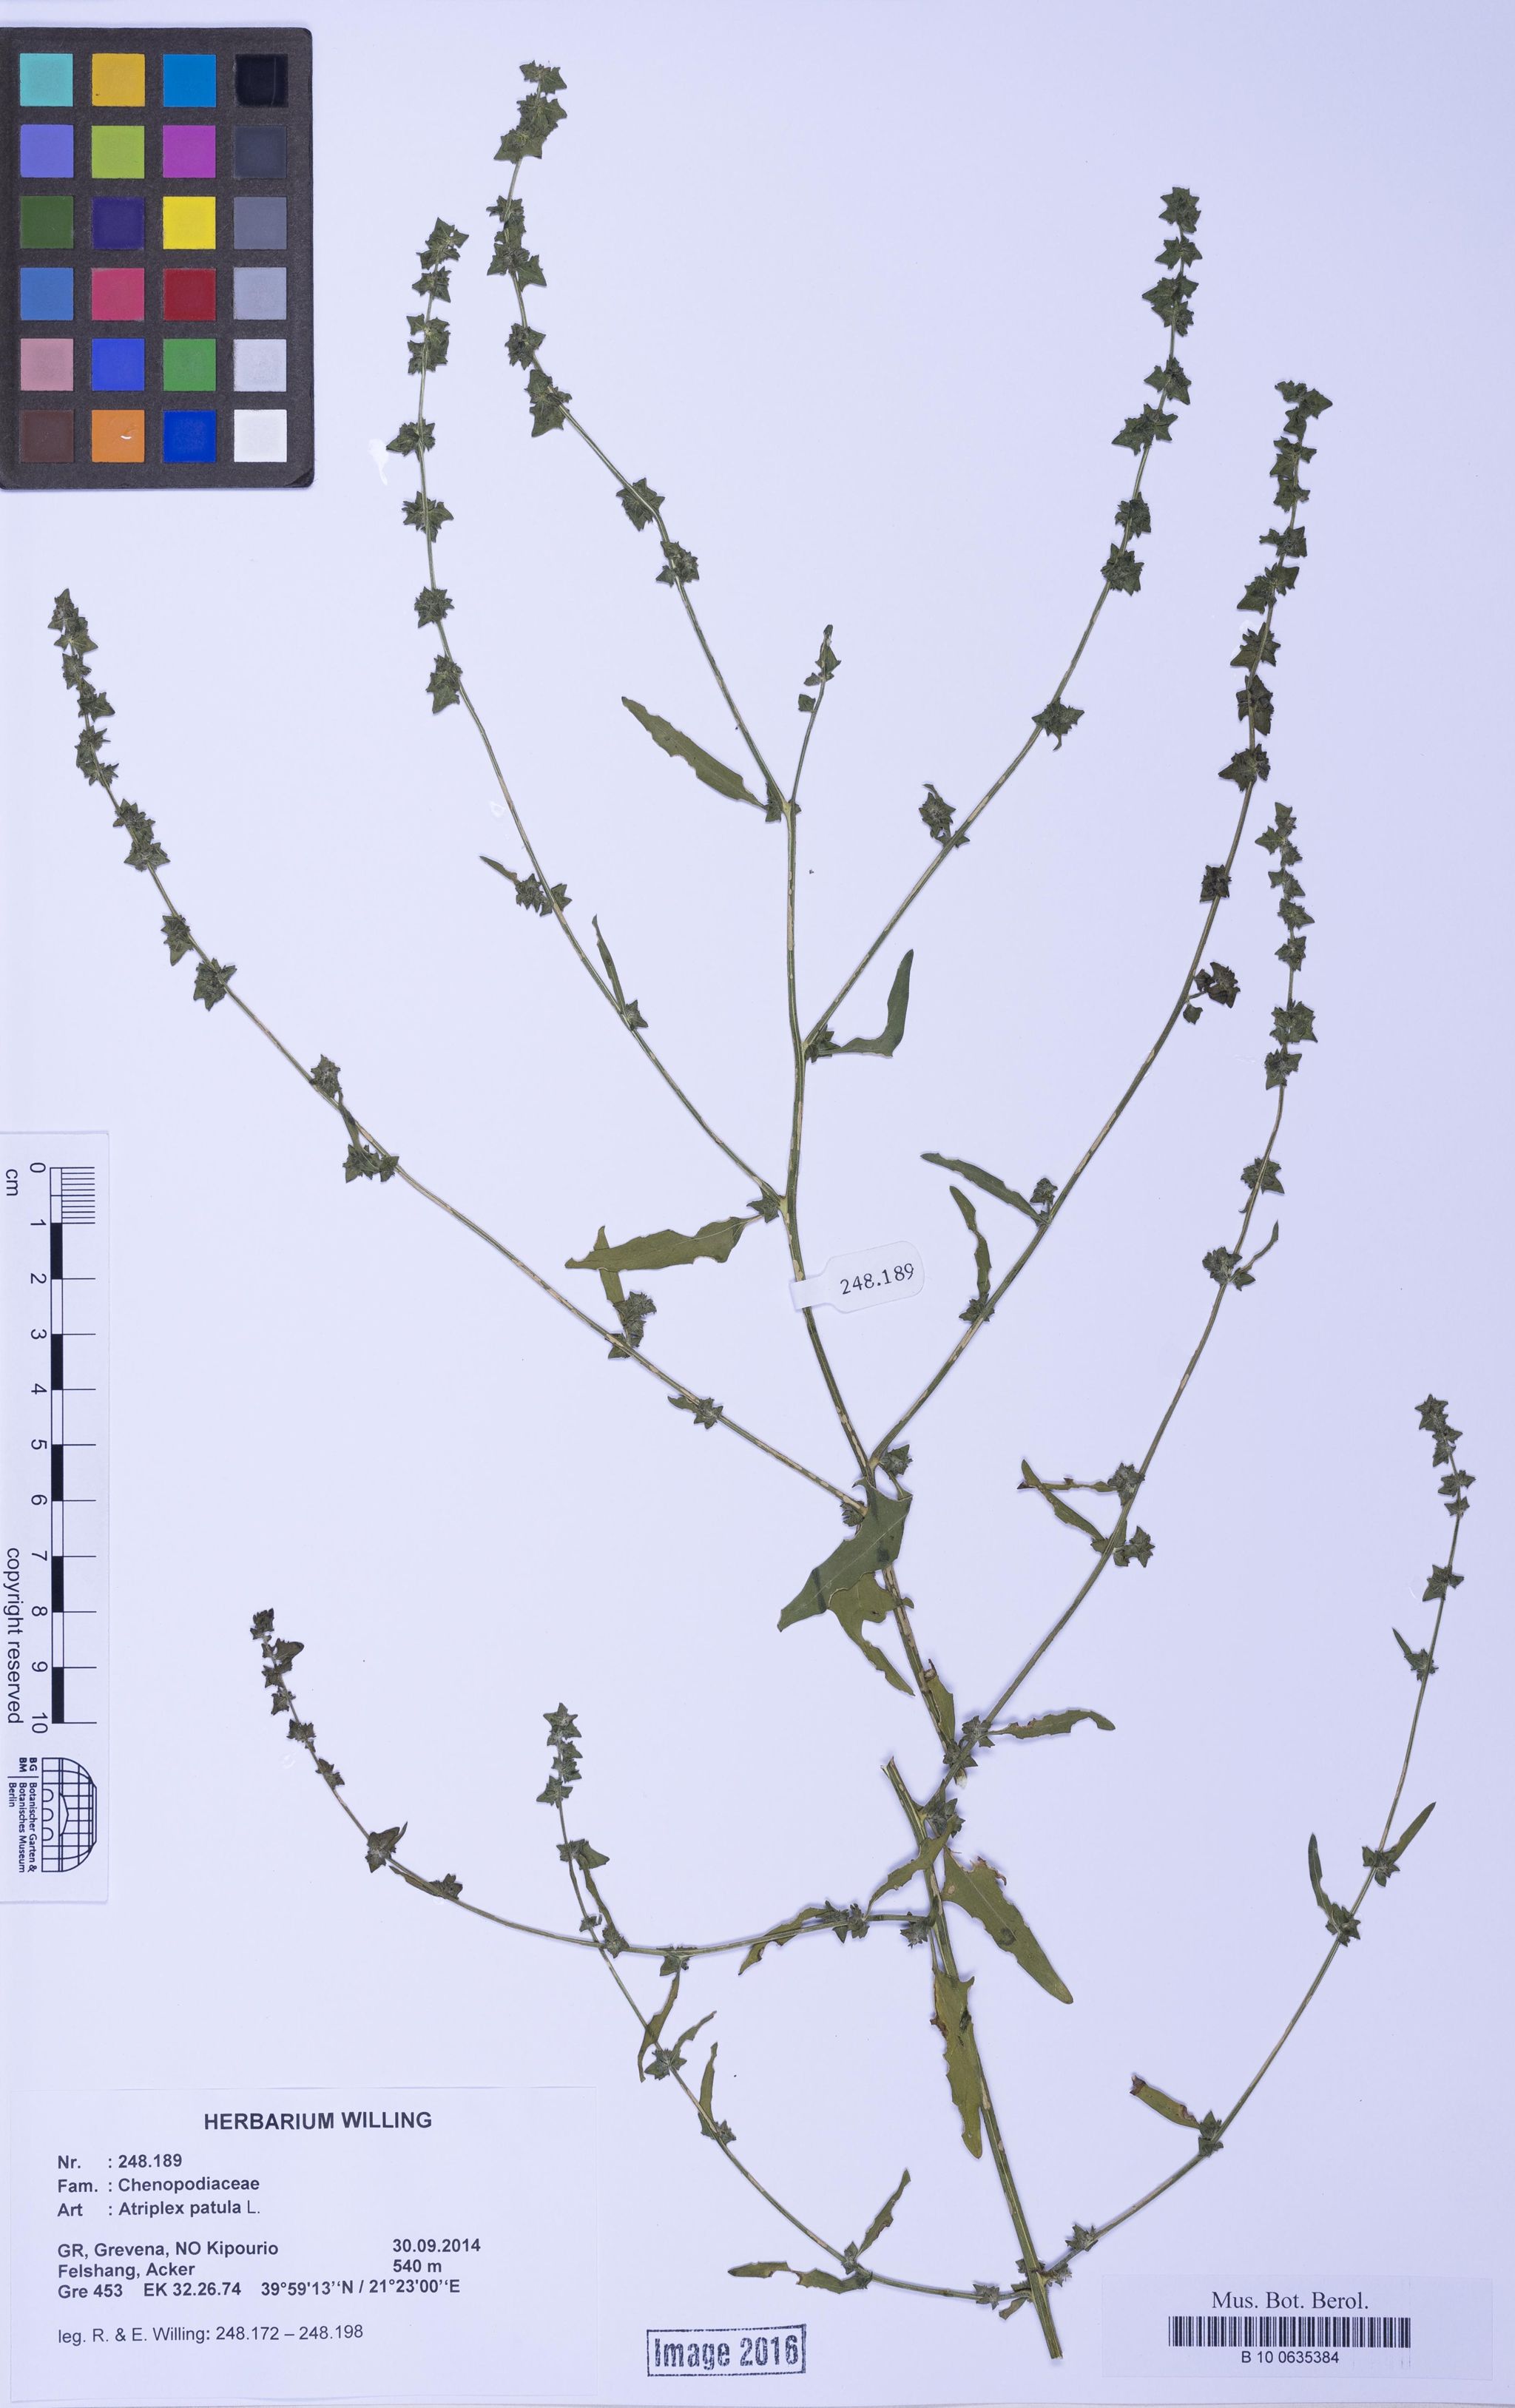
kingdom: Plantae
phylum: Tracheophyta
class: Magnoliopsida
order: Caryophyllales
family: Amaranthaceae
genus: Atriplex
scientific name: Atriplex patula
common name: Common orache
